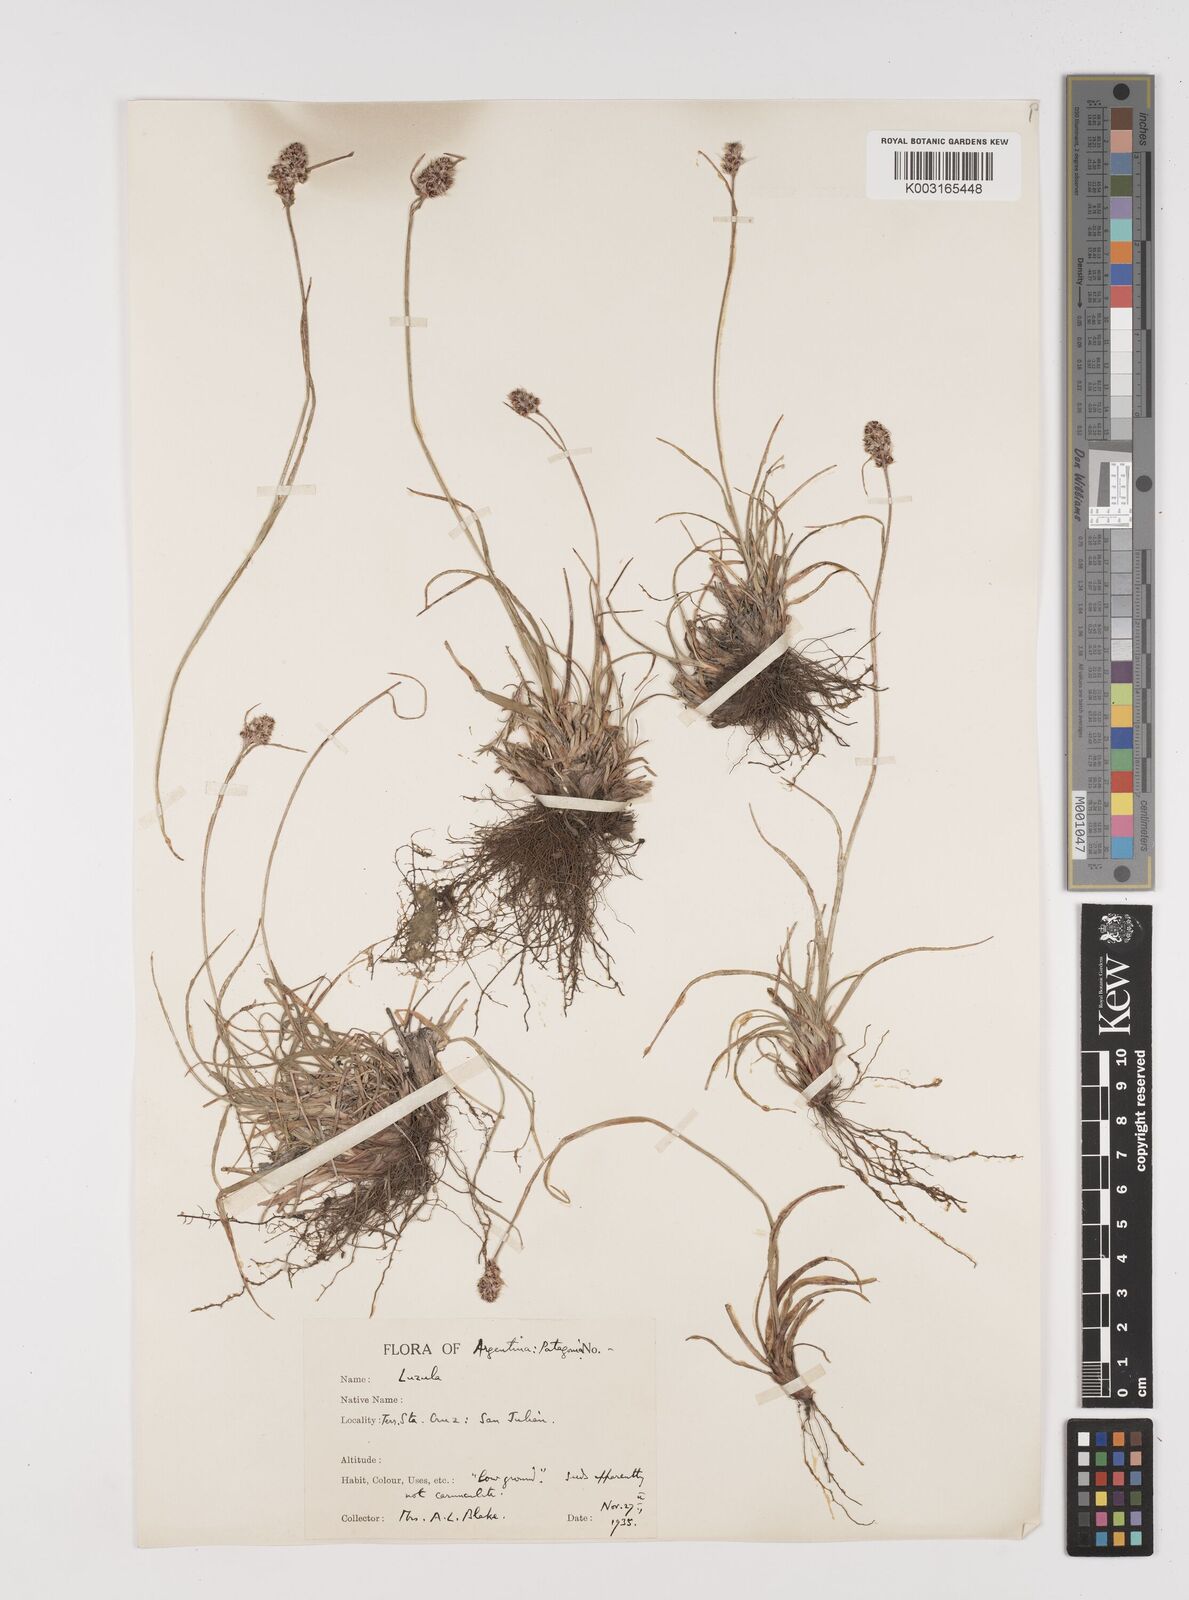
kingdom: Plantae
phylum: Tracheophyta
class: Liliopsida
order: Poales
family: Juncaceae
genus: Luzula
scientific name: Luzula
